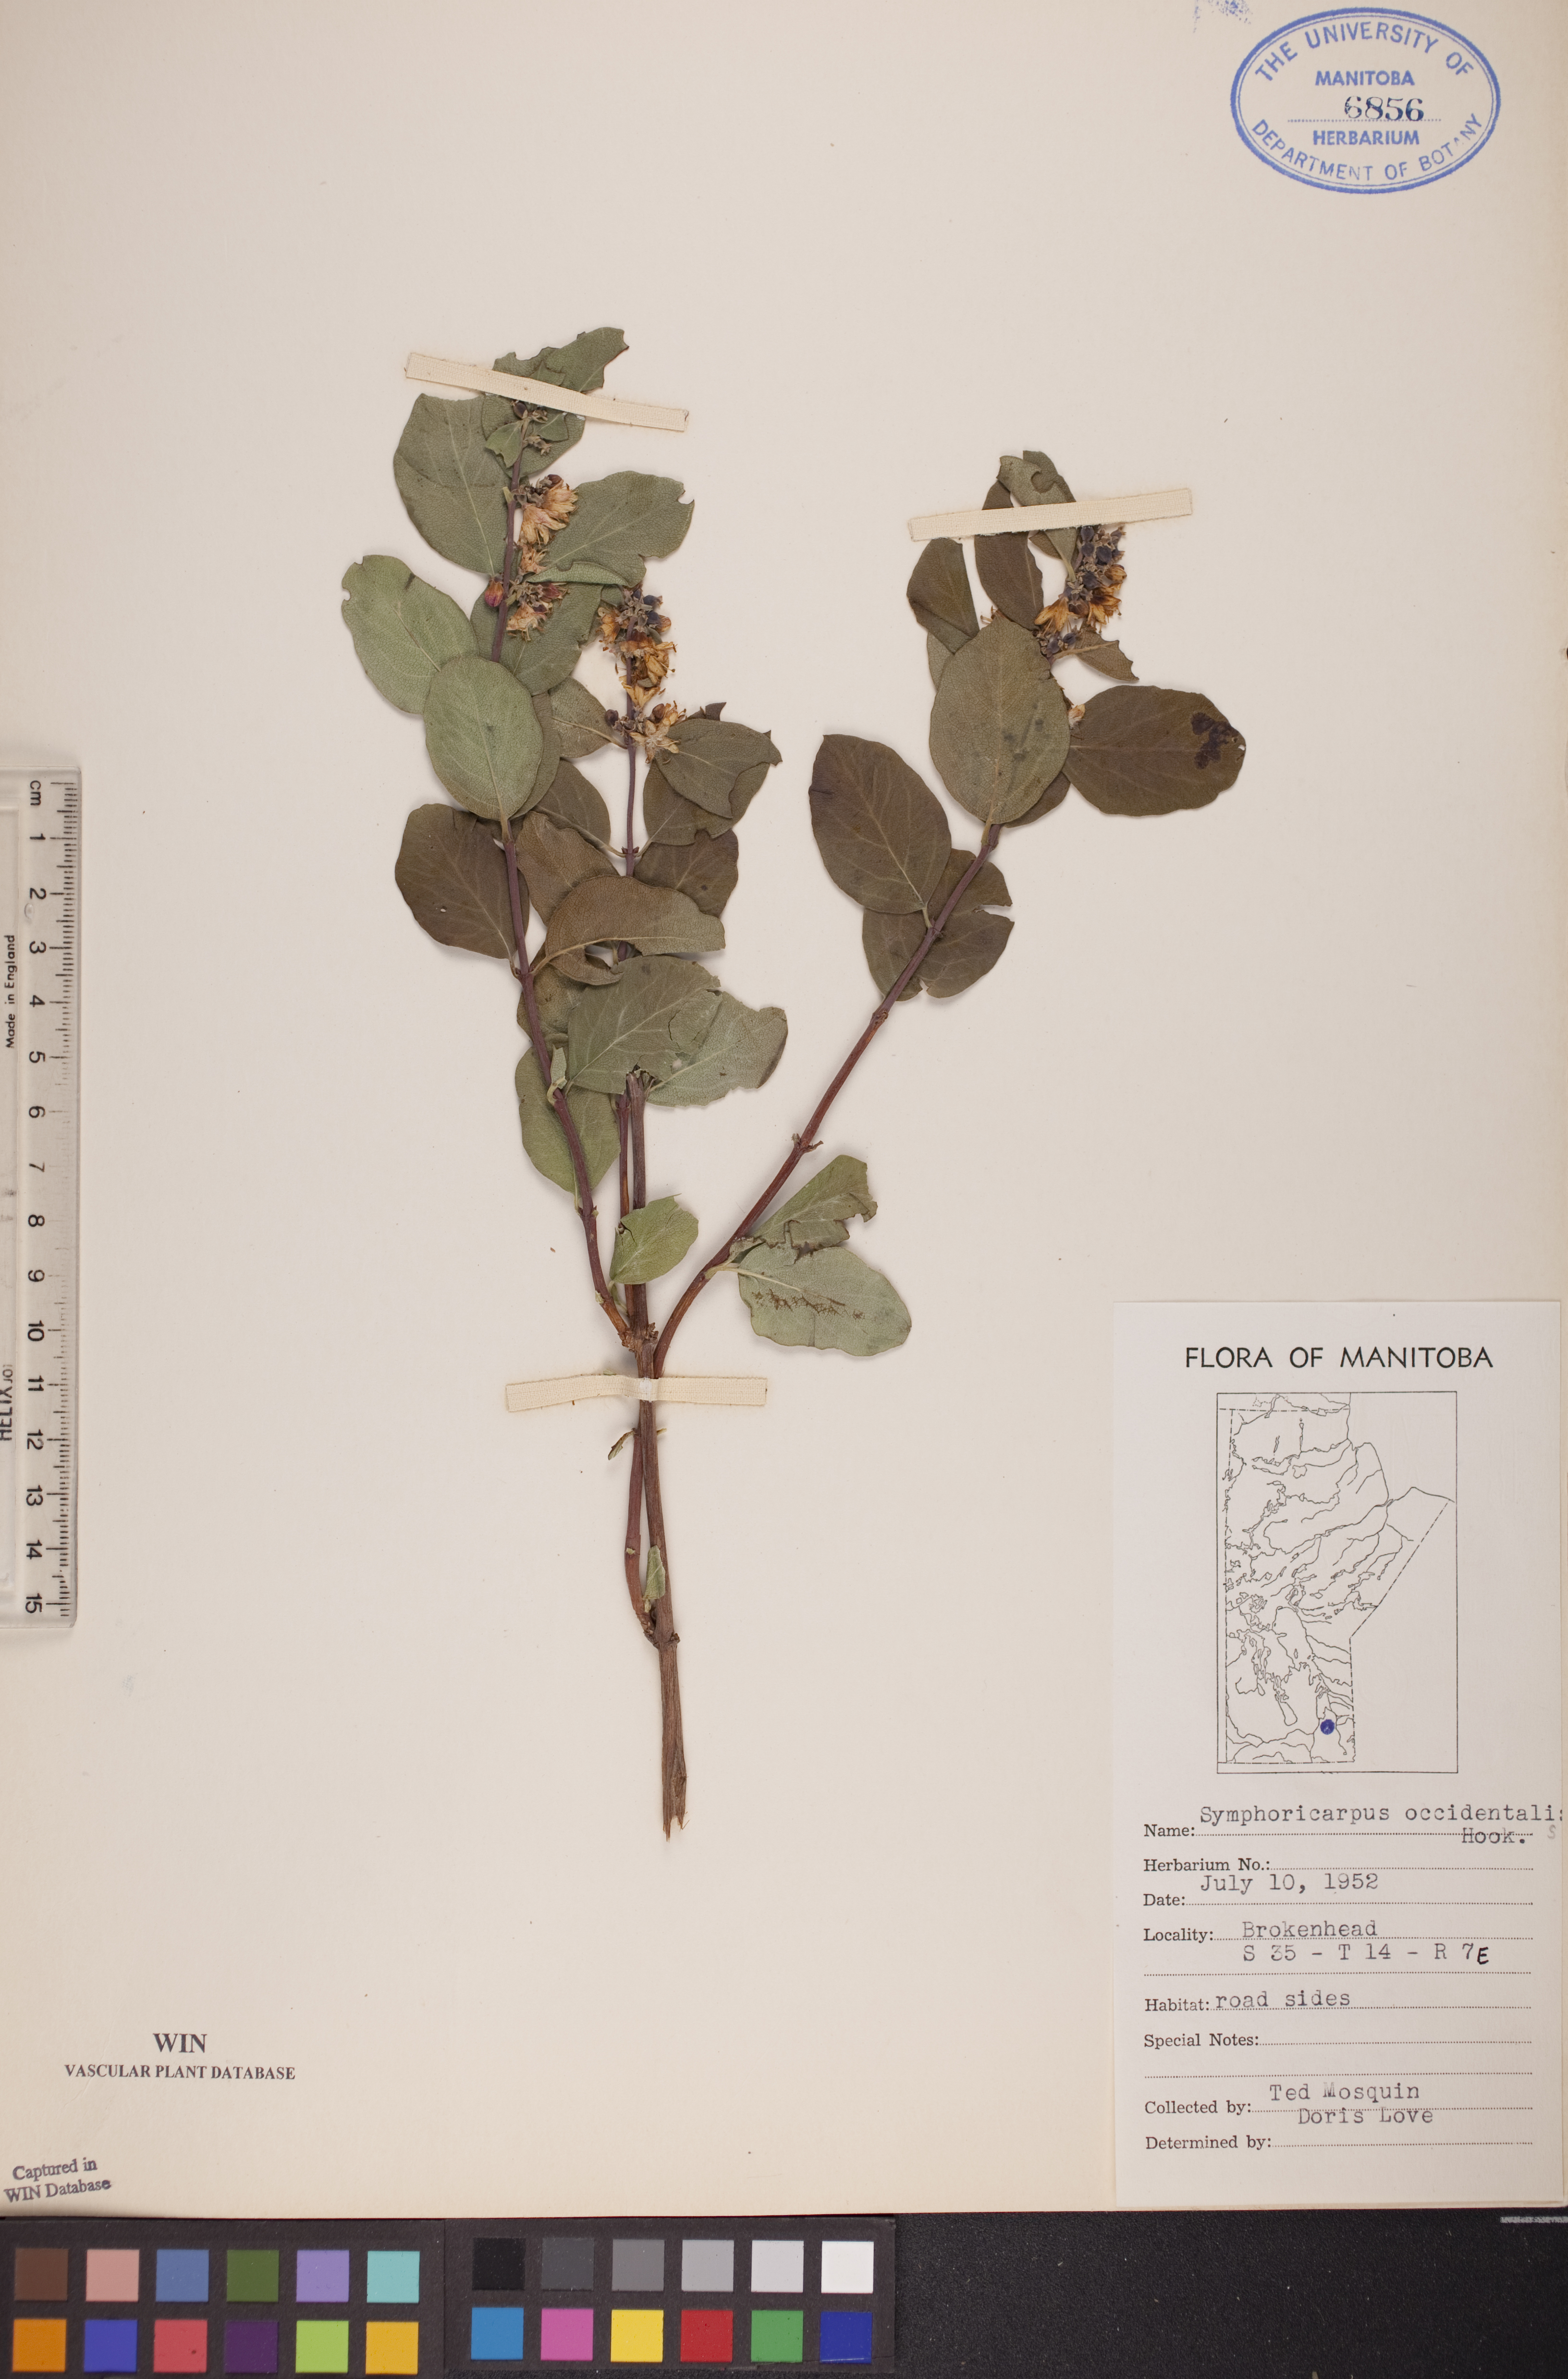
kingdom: Plantae
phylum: Tracheophyta
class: Magnoliopsida
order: Dipsacales
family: Caprifoliaceae
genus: Symphoricarpos
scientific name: Symphoricarpos occidentalis
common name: Wolfberry
